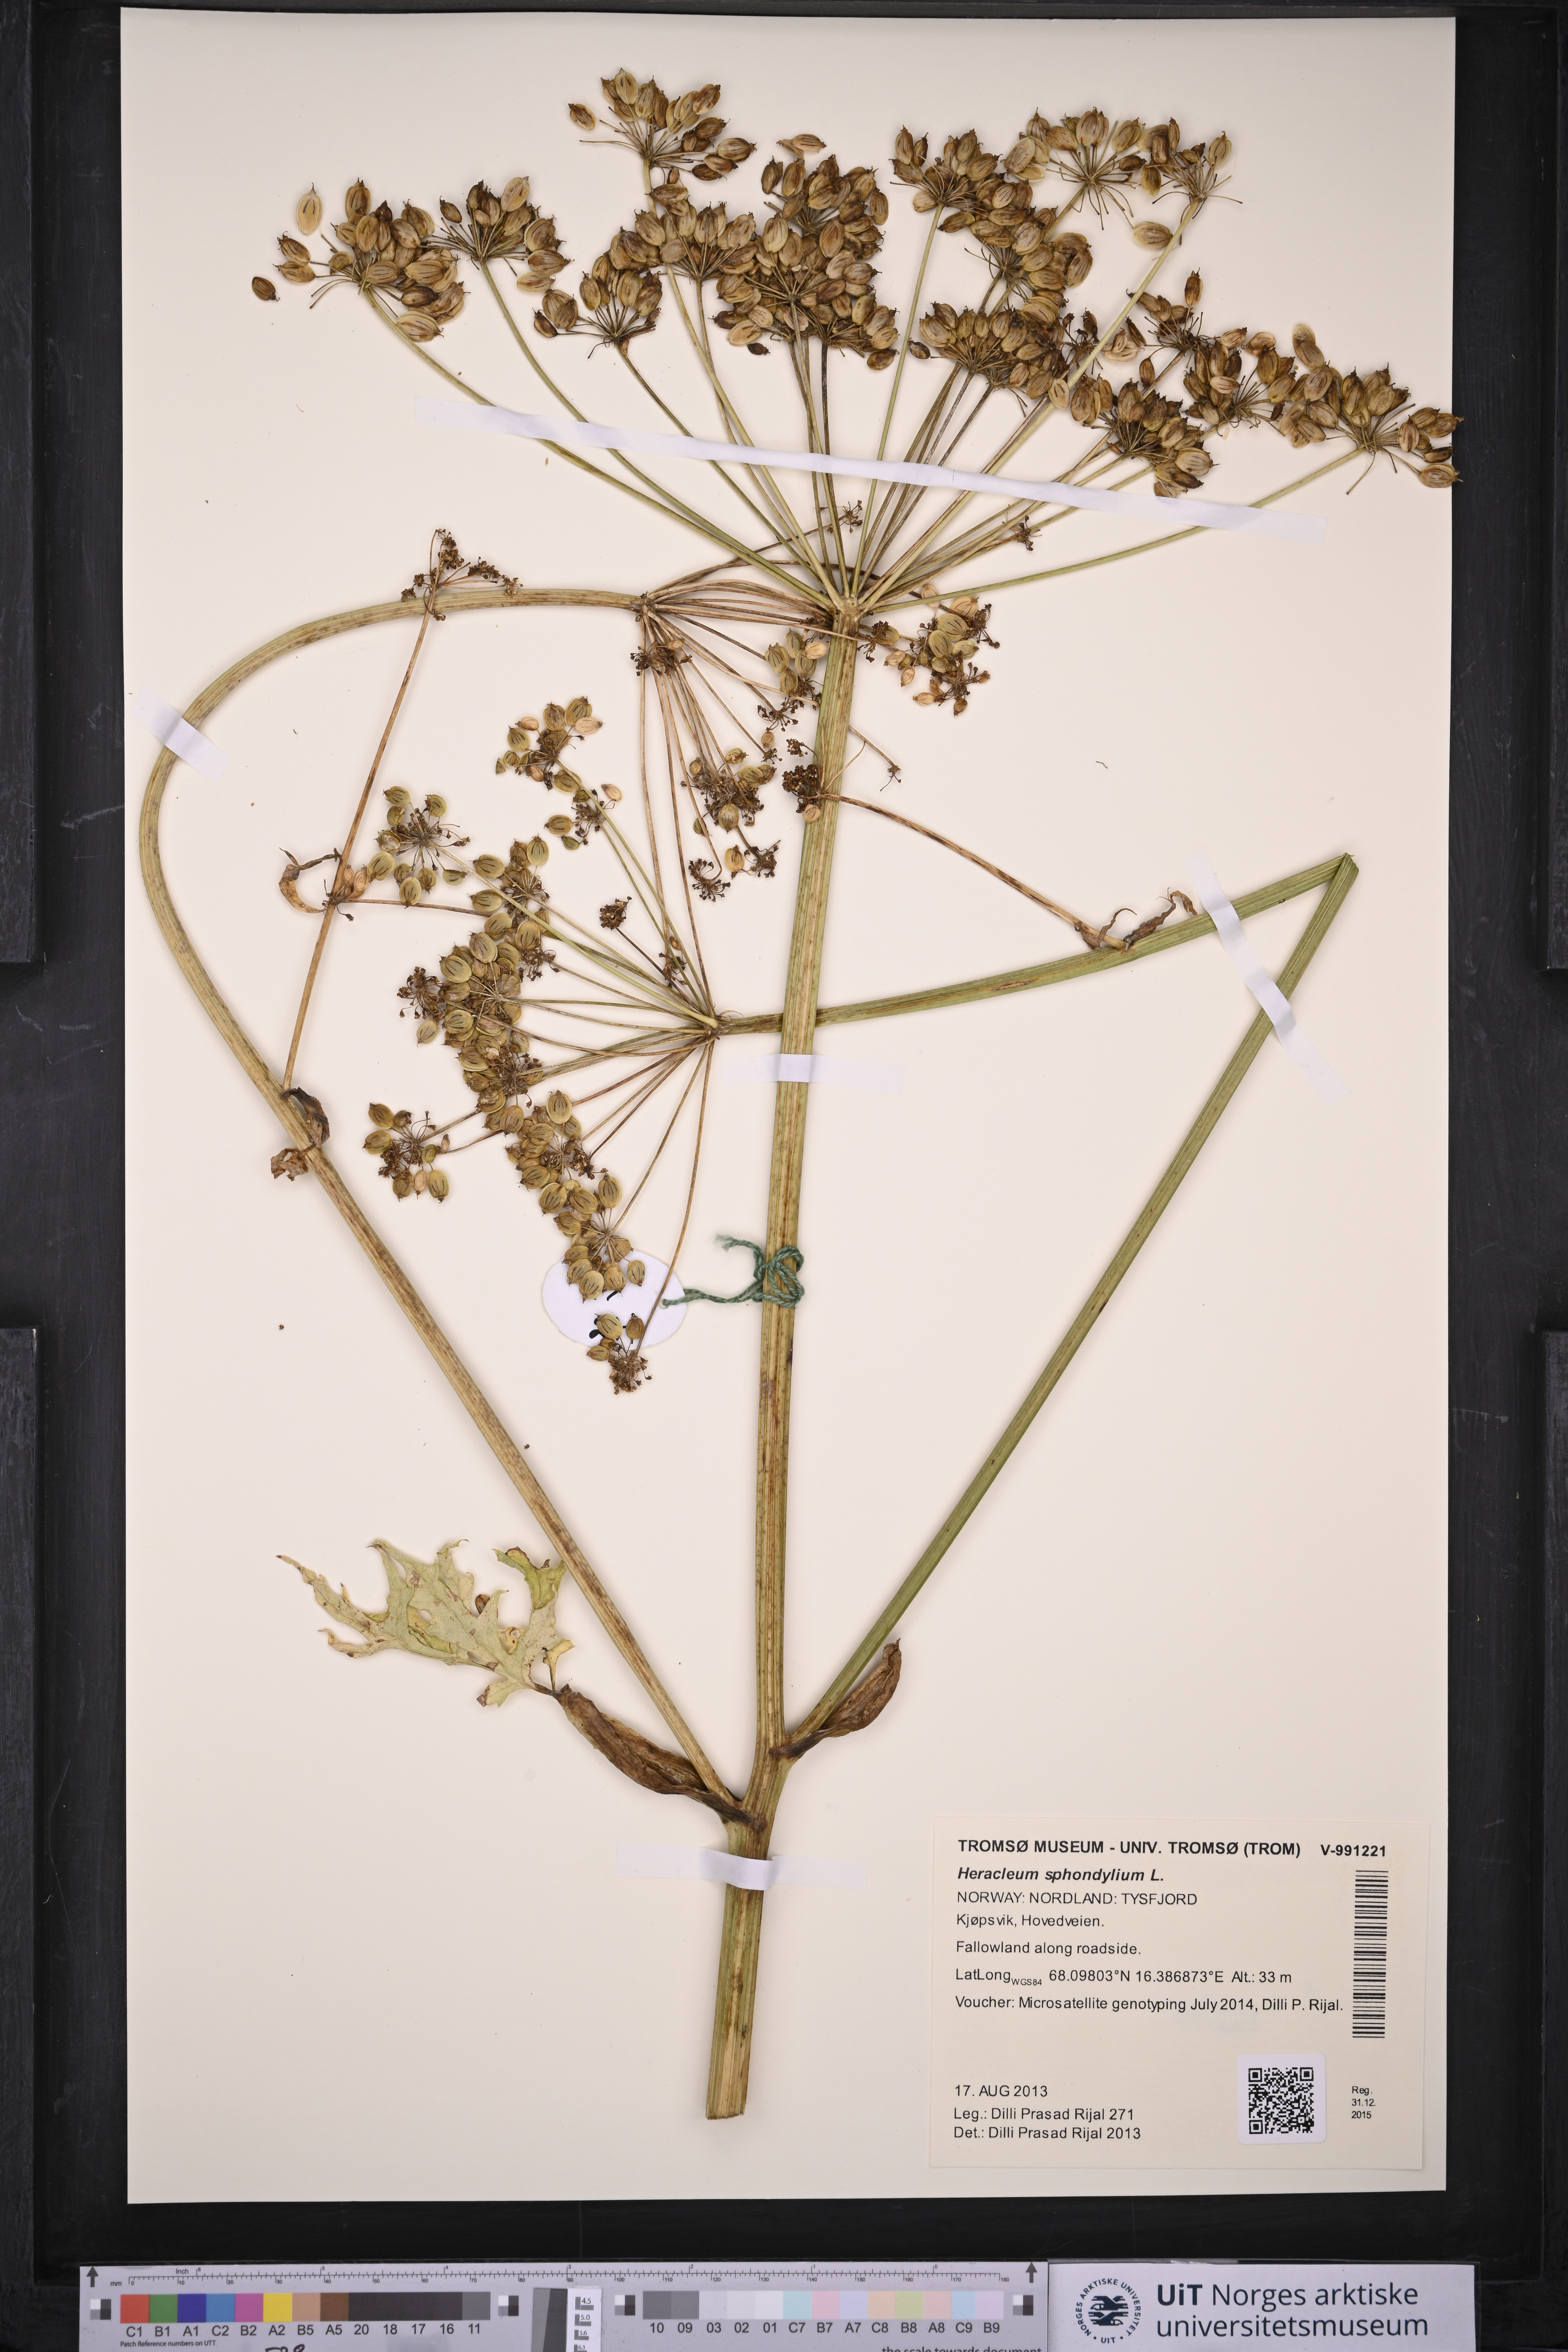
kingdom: Plantae
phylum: Tracheophyta
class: Magnoliopsida
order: Apiales
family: Apiaceae
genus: Heracleum
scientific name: Heracleum sphondylium
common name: Hogweed
